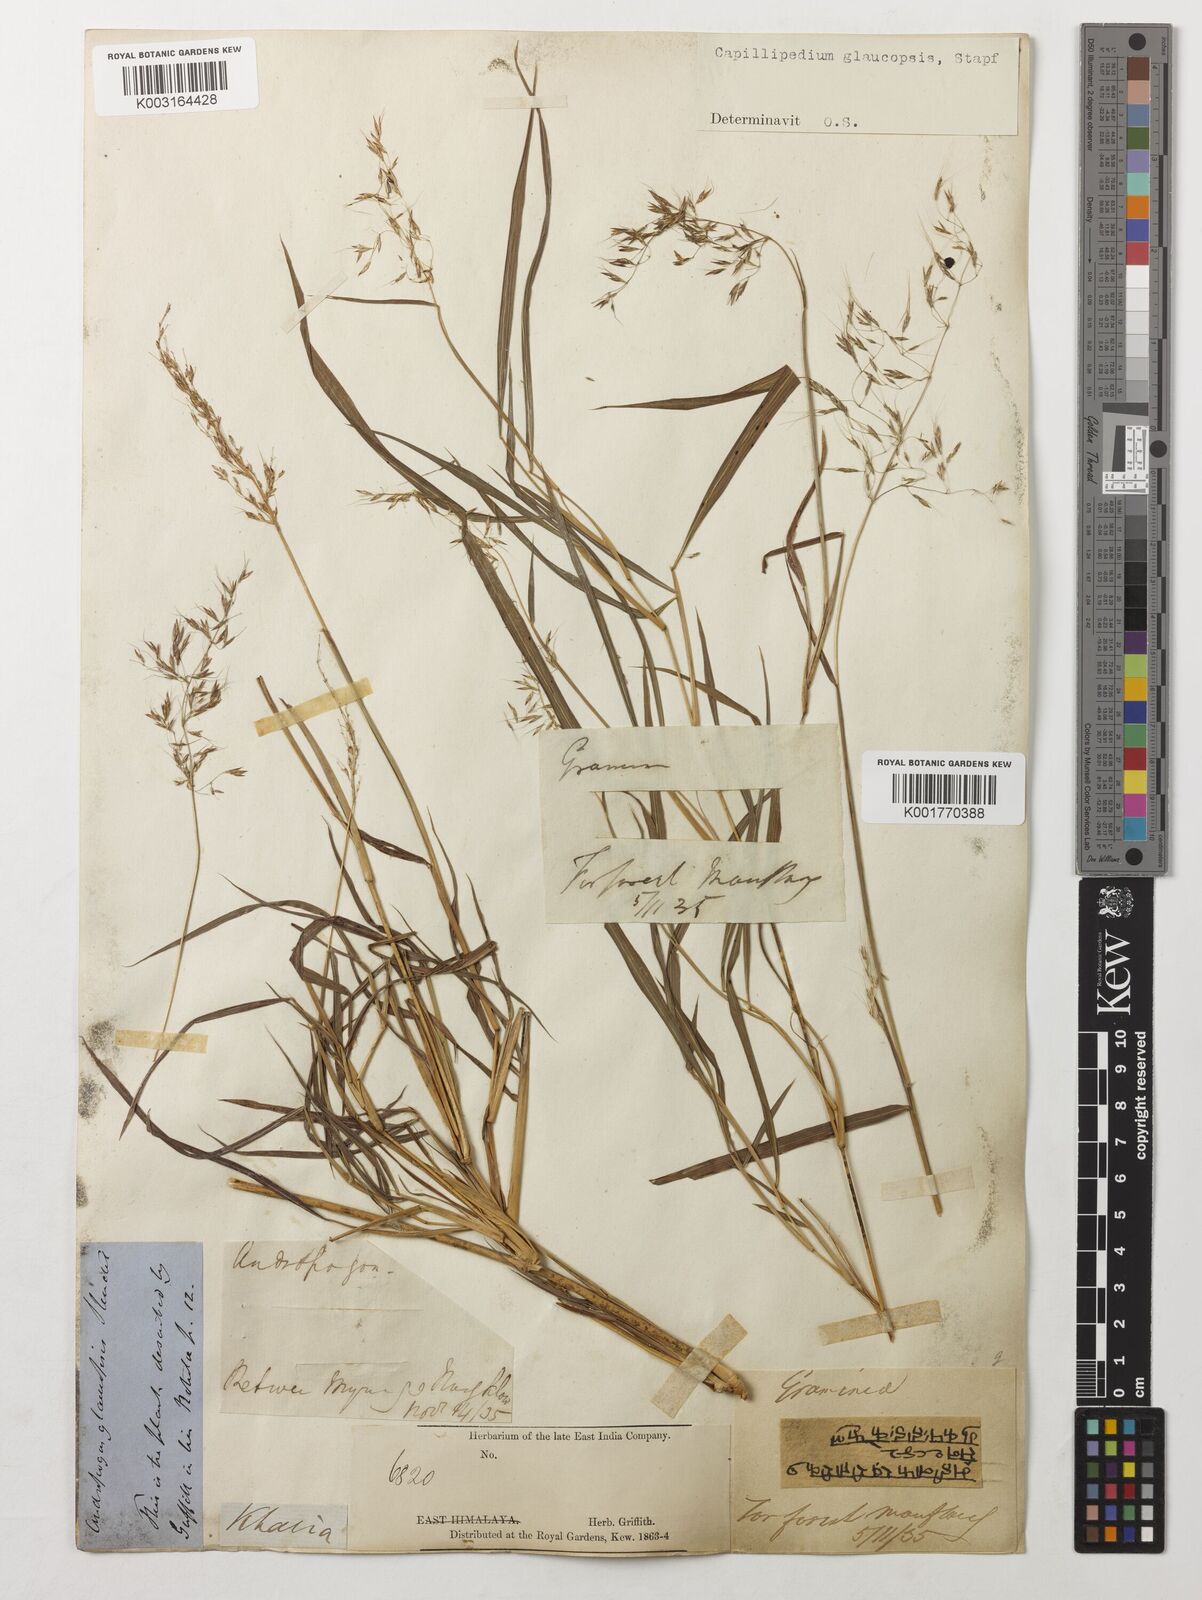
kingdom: Plantae
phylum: Tracheophyta
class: Liliopsida
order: Poales
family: Poaceae
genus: Capillipedium
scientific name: Capillipedium assimile
